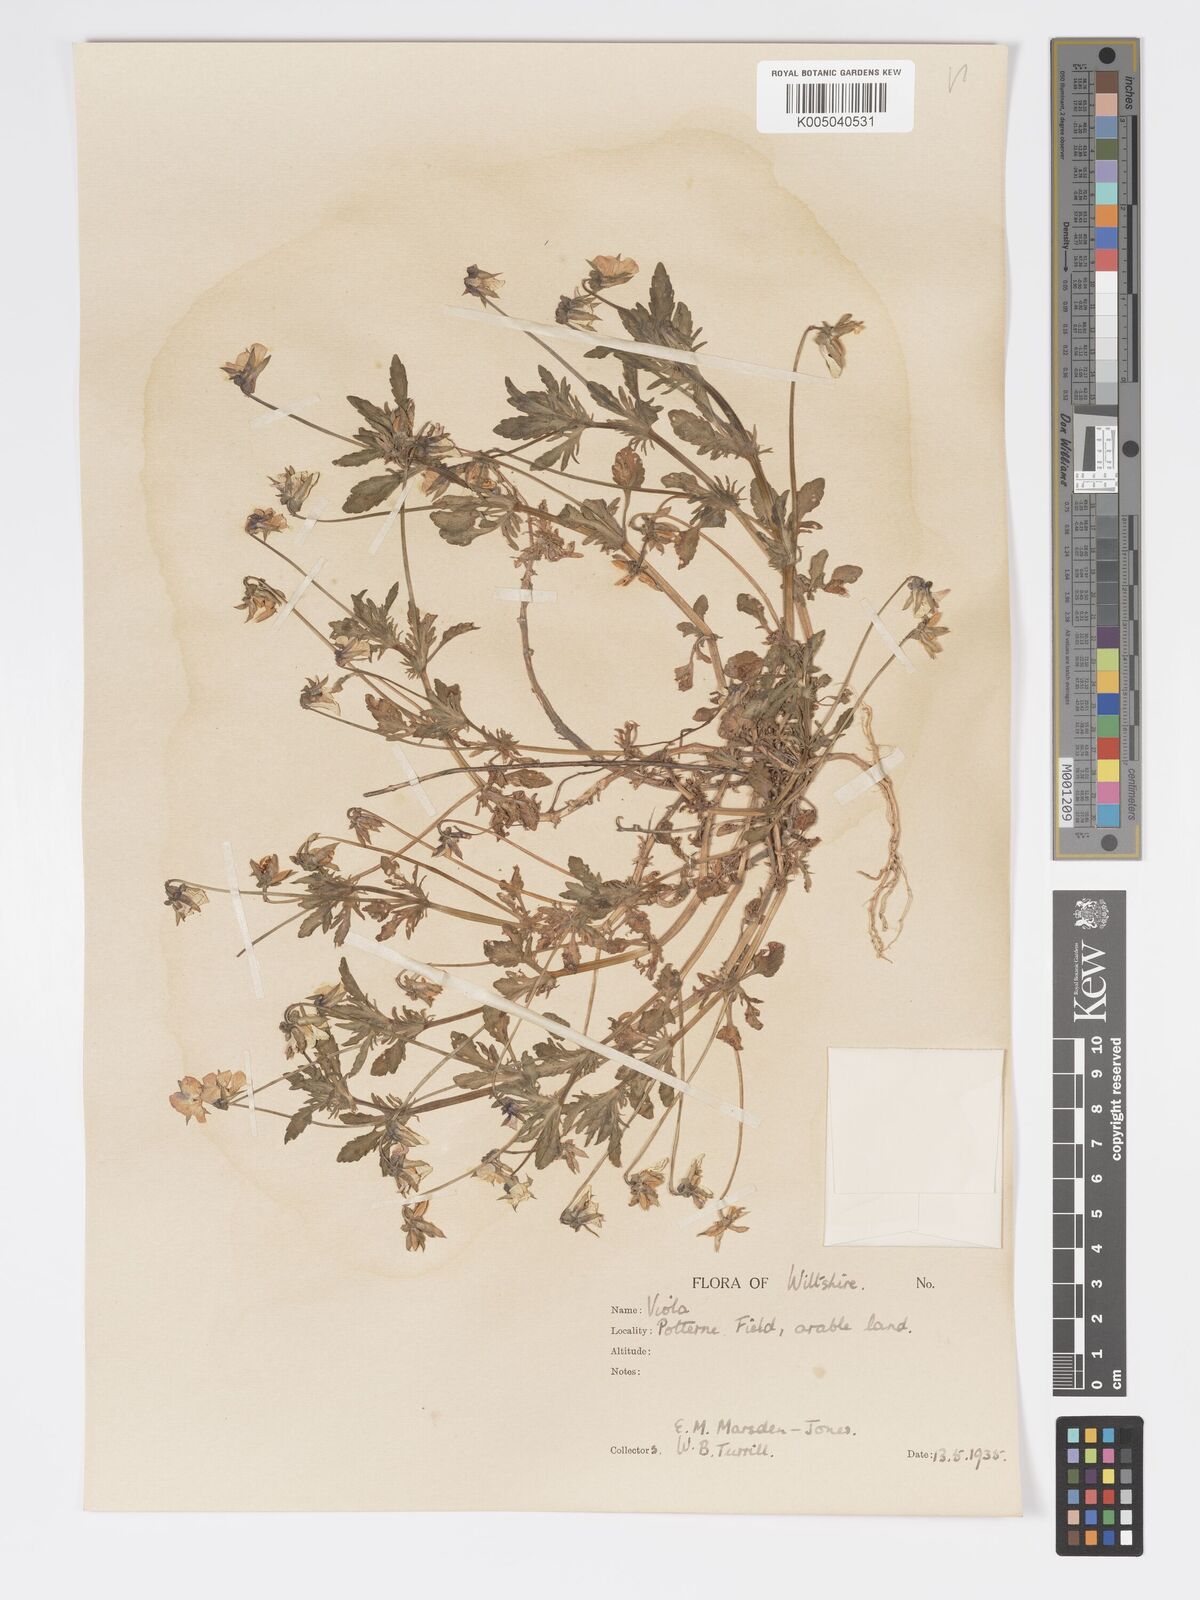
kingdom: Plantae
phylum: Tracheophyta
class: Magnoliopsida
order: Malpighiales
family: Violaceae
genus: Viola
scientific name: Viola
